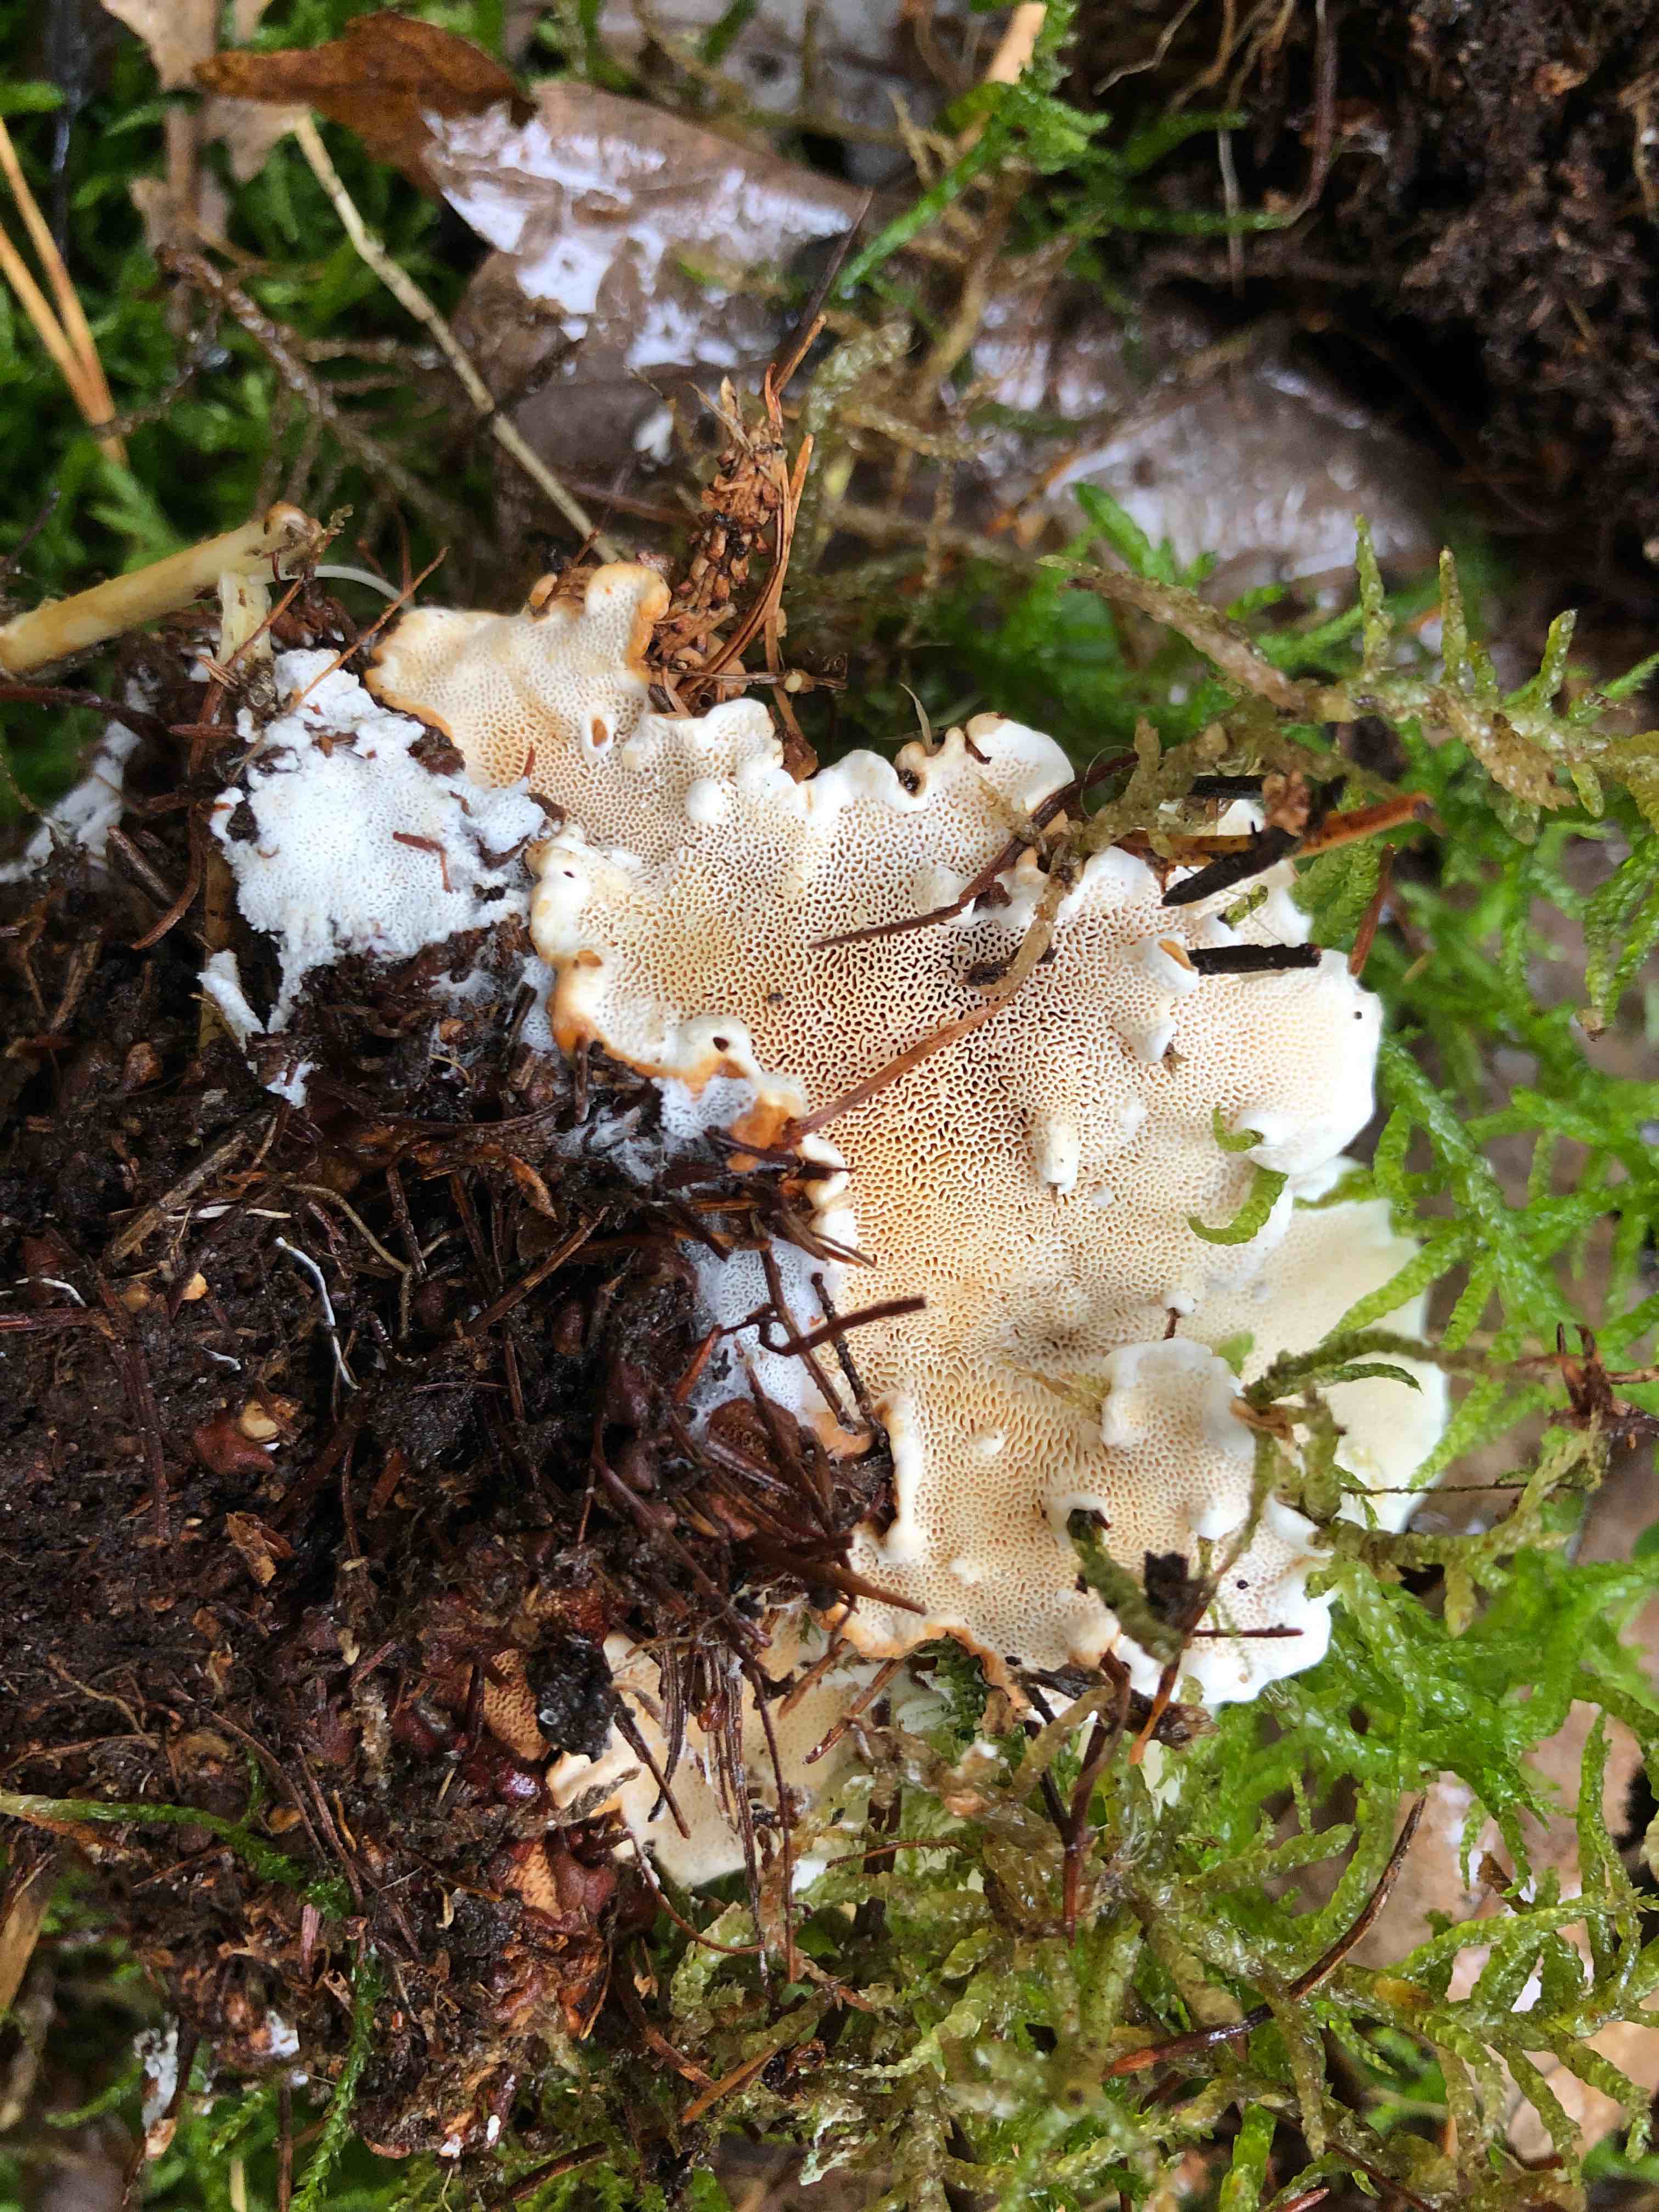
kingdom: Fungi
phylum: Basidiomycota
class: Agaricomycetes
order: Russulales
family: Bondarzewiaceae
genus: Heterobasidion
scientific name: Heterobasidion annosum
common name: almindelig rodfordærver
